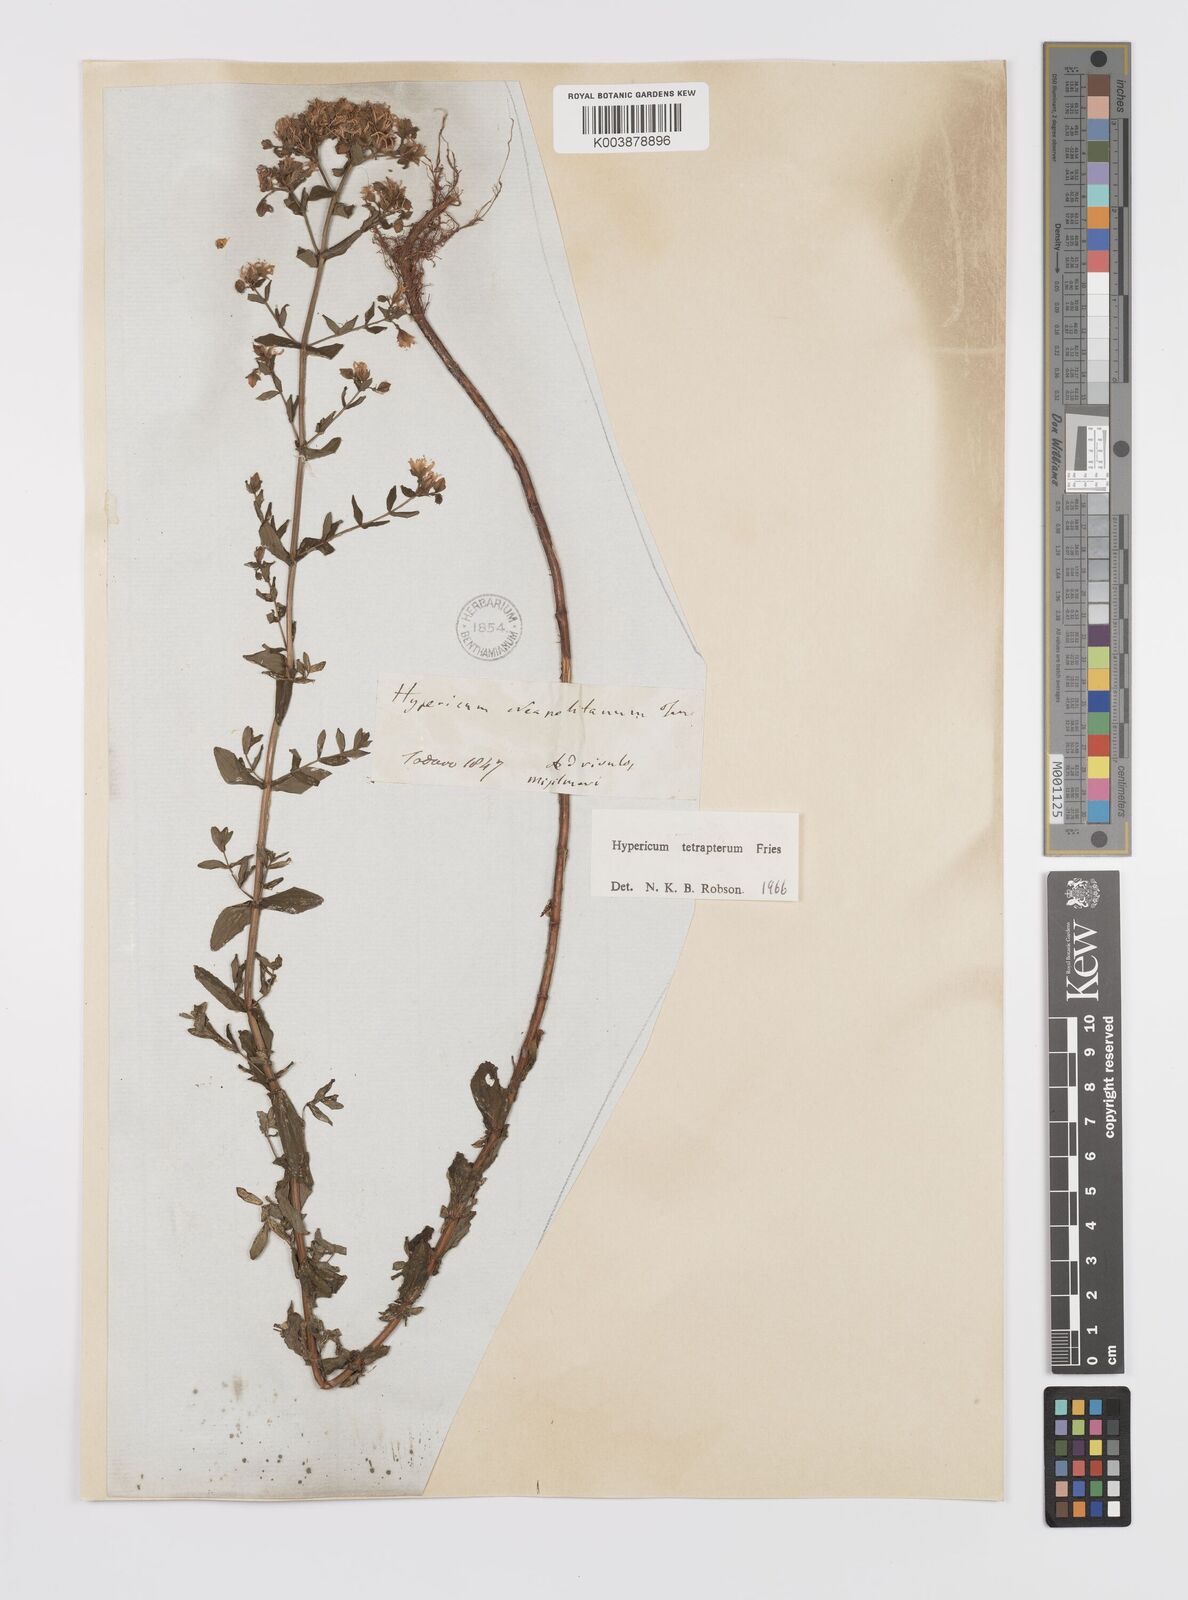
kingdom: Plantae
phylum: Tracheophyta
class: Magnoliopsida
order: Malpighiales
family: Hypericaceae
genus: Hypericum
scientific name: Hypericum tetrapterum
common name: Square-stalked st. john's-wort
